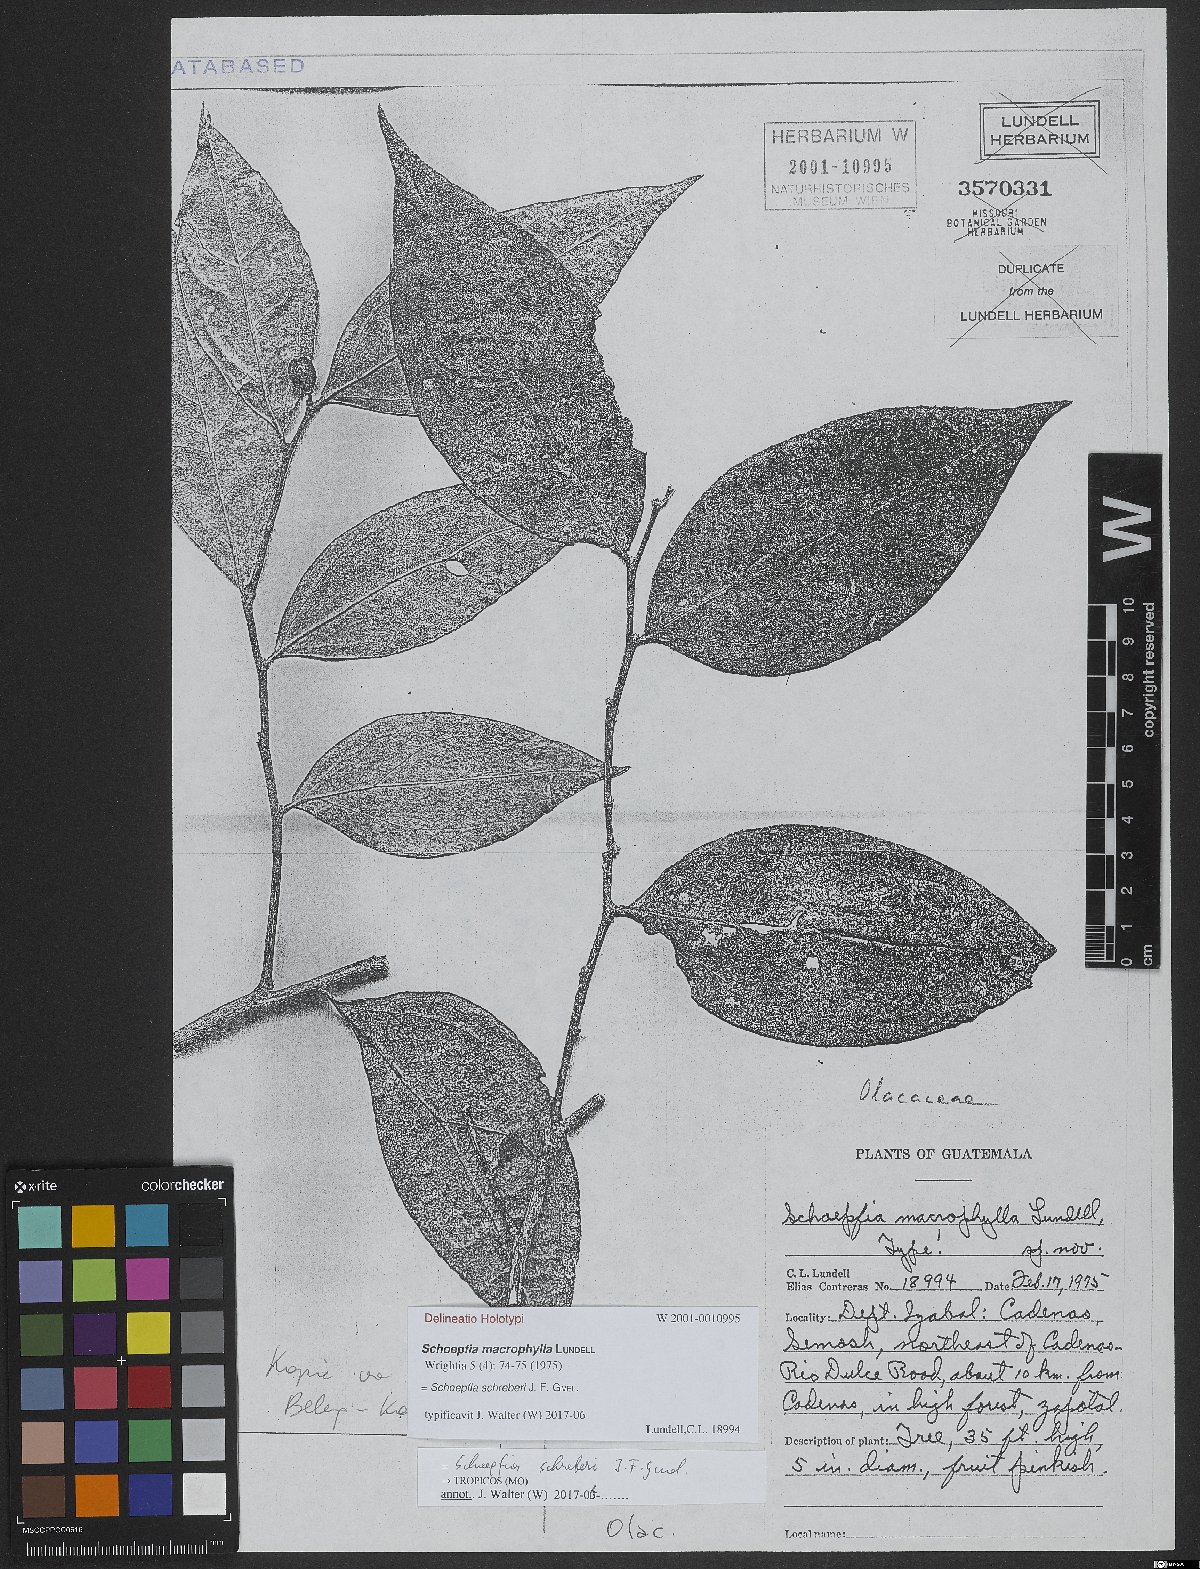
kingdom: Plantae
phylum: Tracheophyta
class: Magnoliopsida
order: Santalales
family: Schoepfiaceae
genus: Schoepfia
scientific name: Schoepfia schreberi
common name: Gulf graytwig
